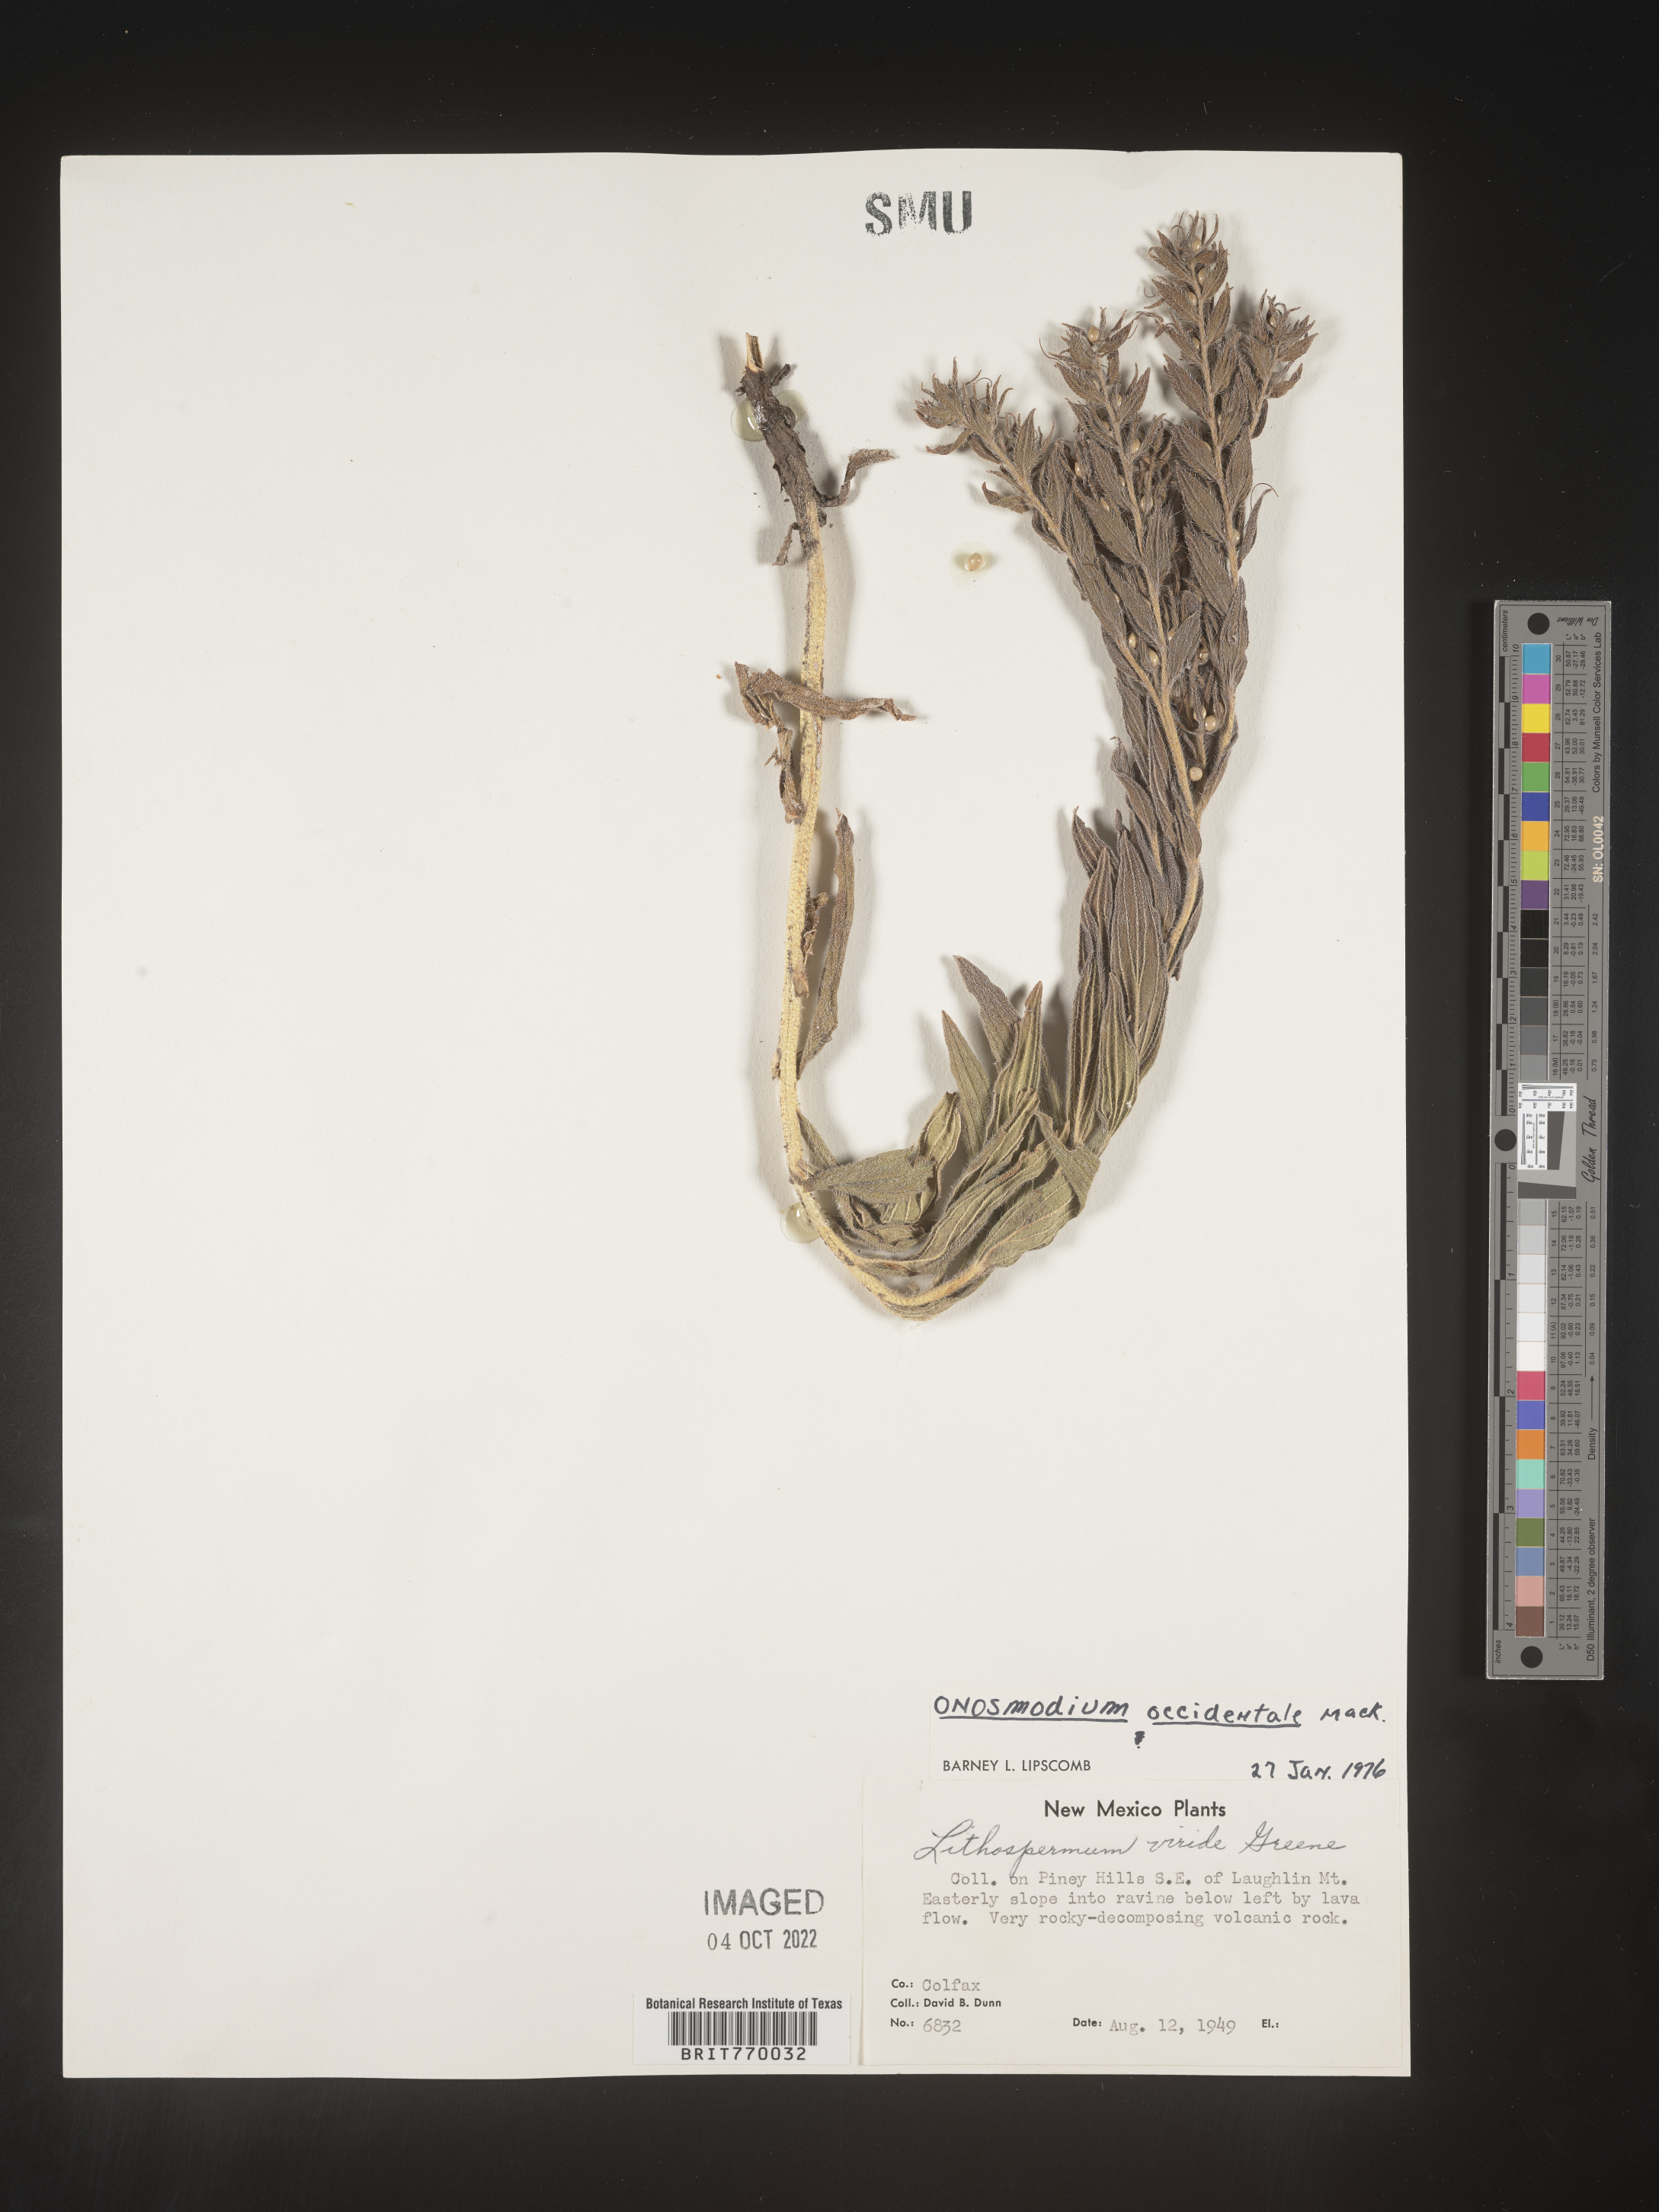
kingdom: Plantae
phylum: Tracheophyta
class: Magnoliopsida
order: Boraginales
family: Boraginaceae
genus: Lithospermum
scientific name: Lithospermum occidentale
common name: Western false gromwell
